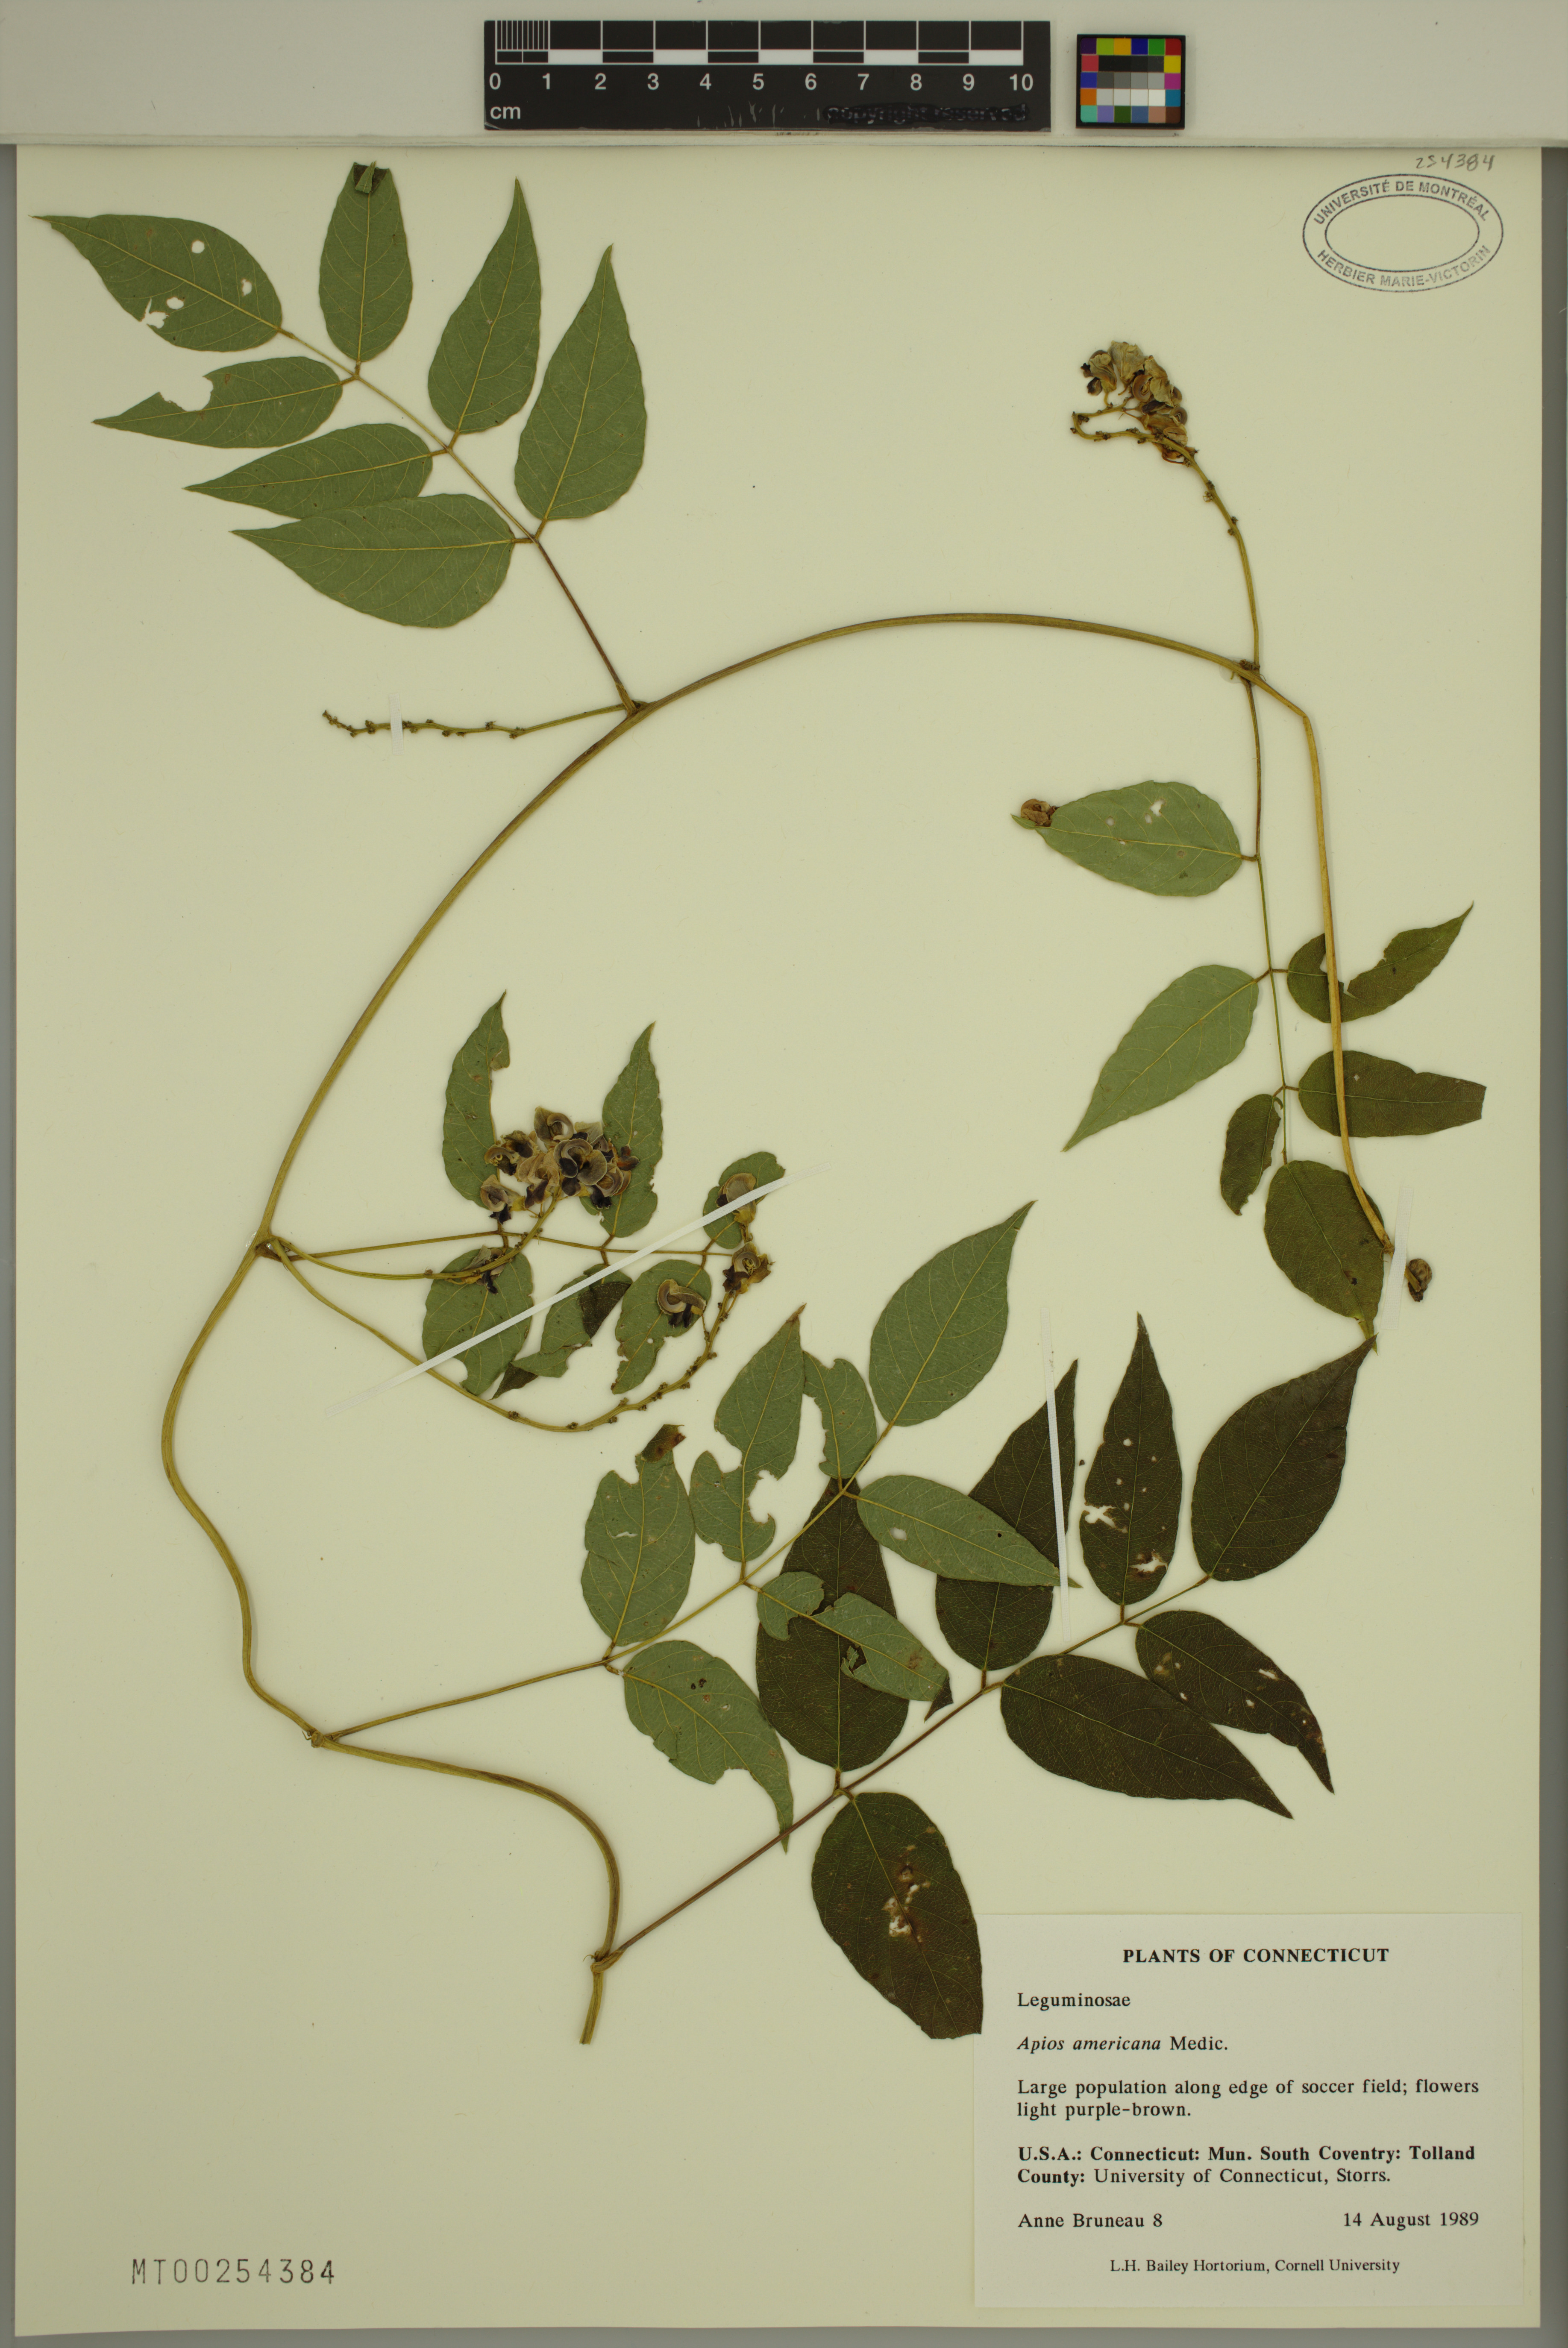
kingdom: Plantae
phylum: Tracheophyta
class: Magnoliopsida
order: Fabales
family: Fabaceae
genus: Apios
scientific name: Apios americana
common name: American potato-bean
